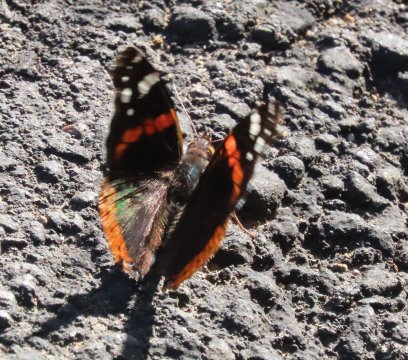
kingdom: Animalia
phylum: Arthropoda
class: Insecta
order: Lepidoptera
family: Nymphalidae
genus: Vanessa
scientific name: Vanessa atalanta
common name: Red Admiral
